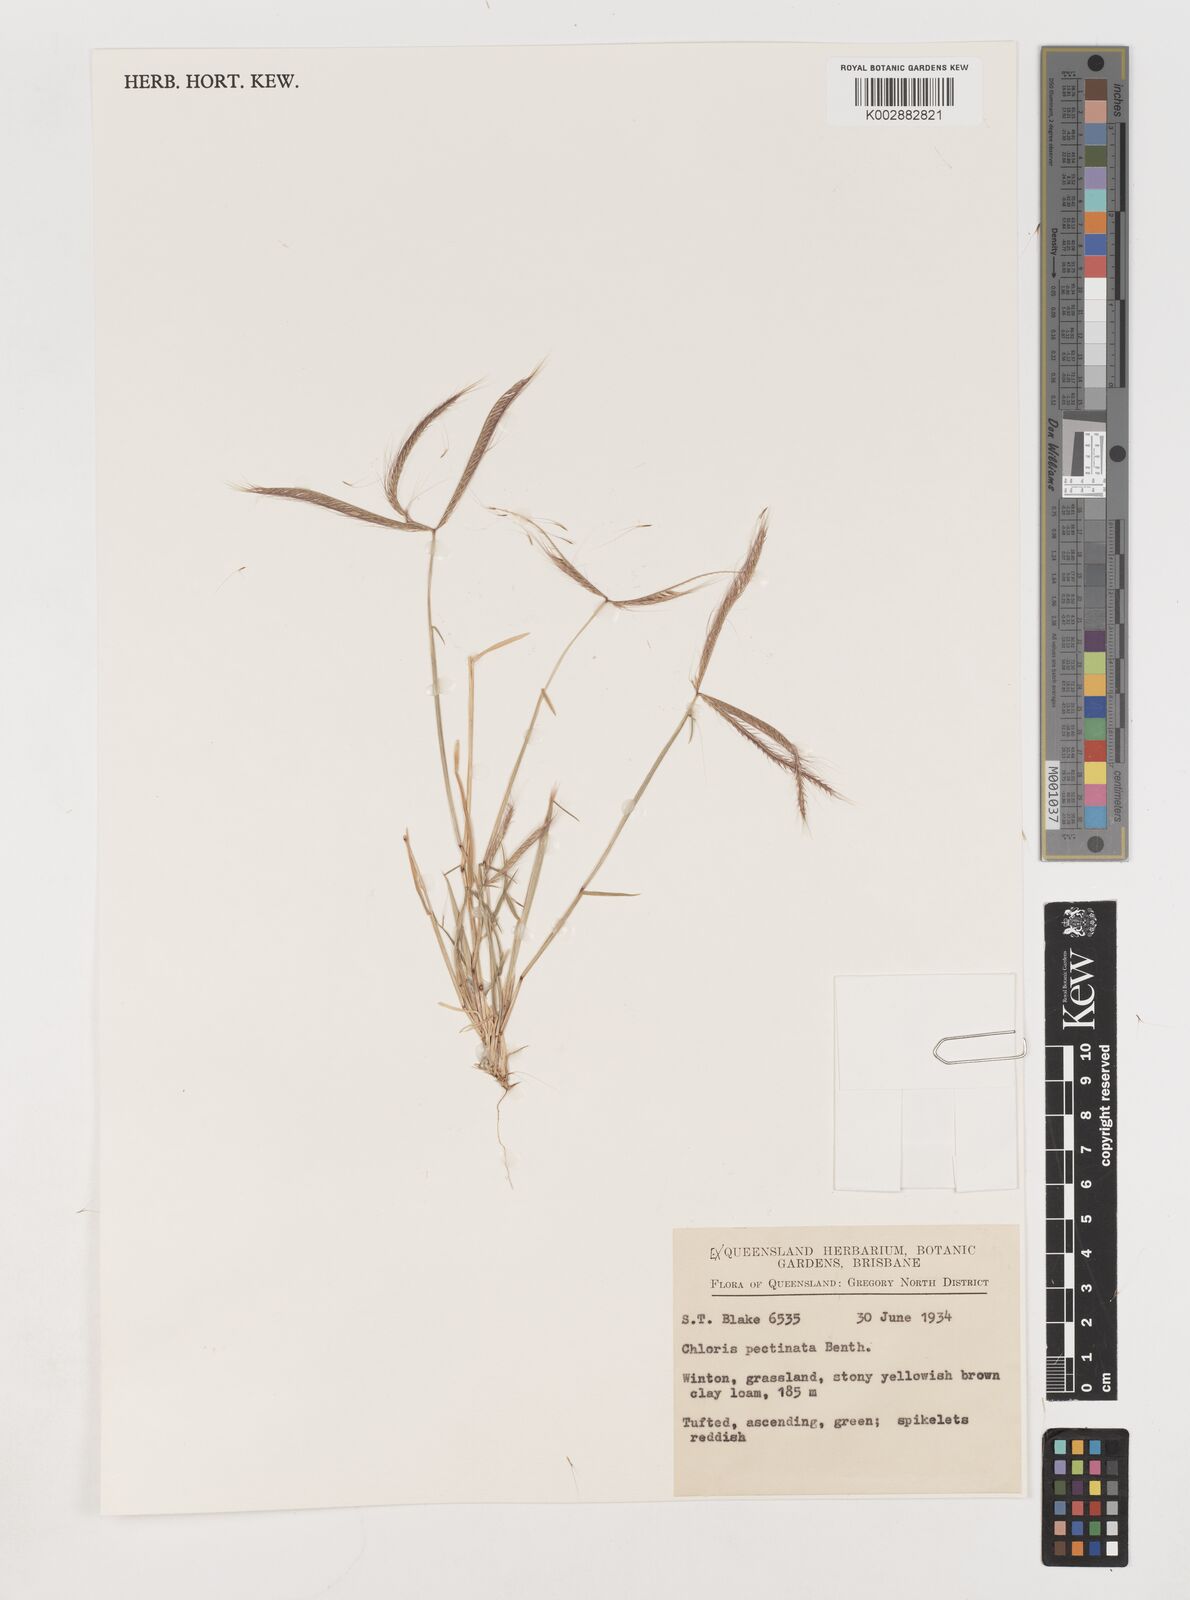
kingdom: Plantae
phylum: Tracheophyta
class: Liliopsida
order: Poales
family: Poaceae
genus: Chloris
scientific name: Chloris pectinata
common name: Comb windmill grass
